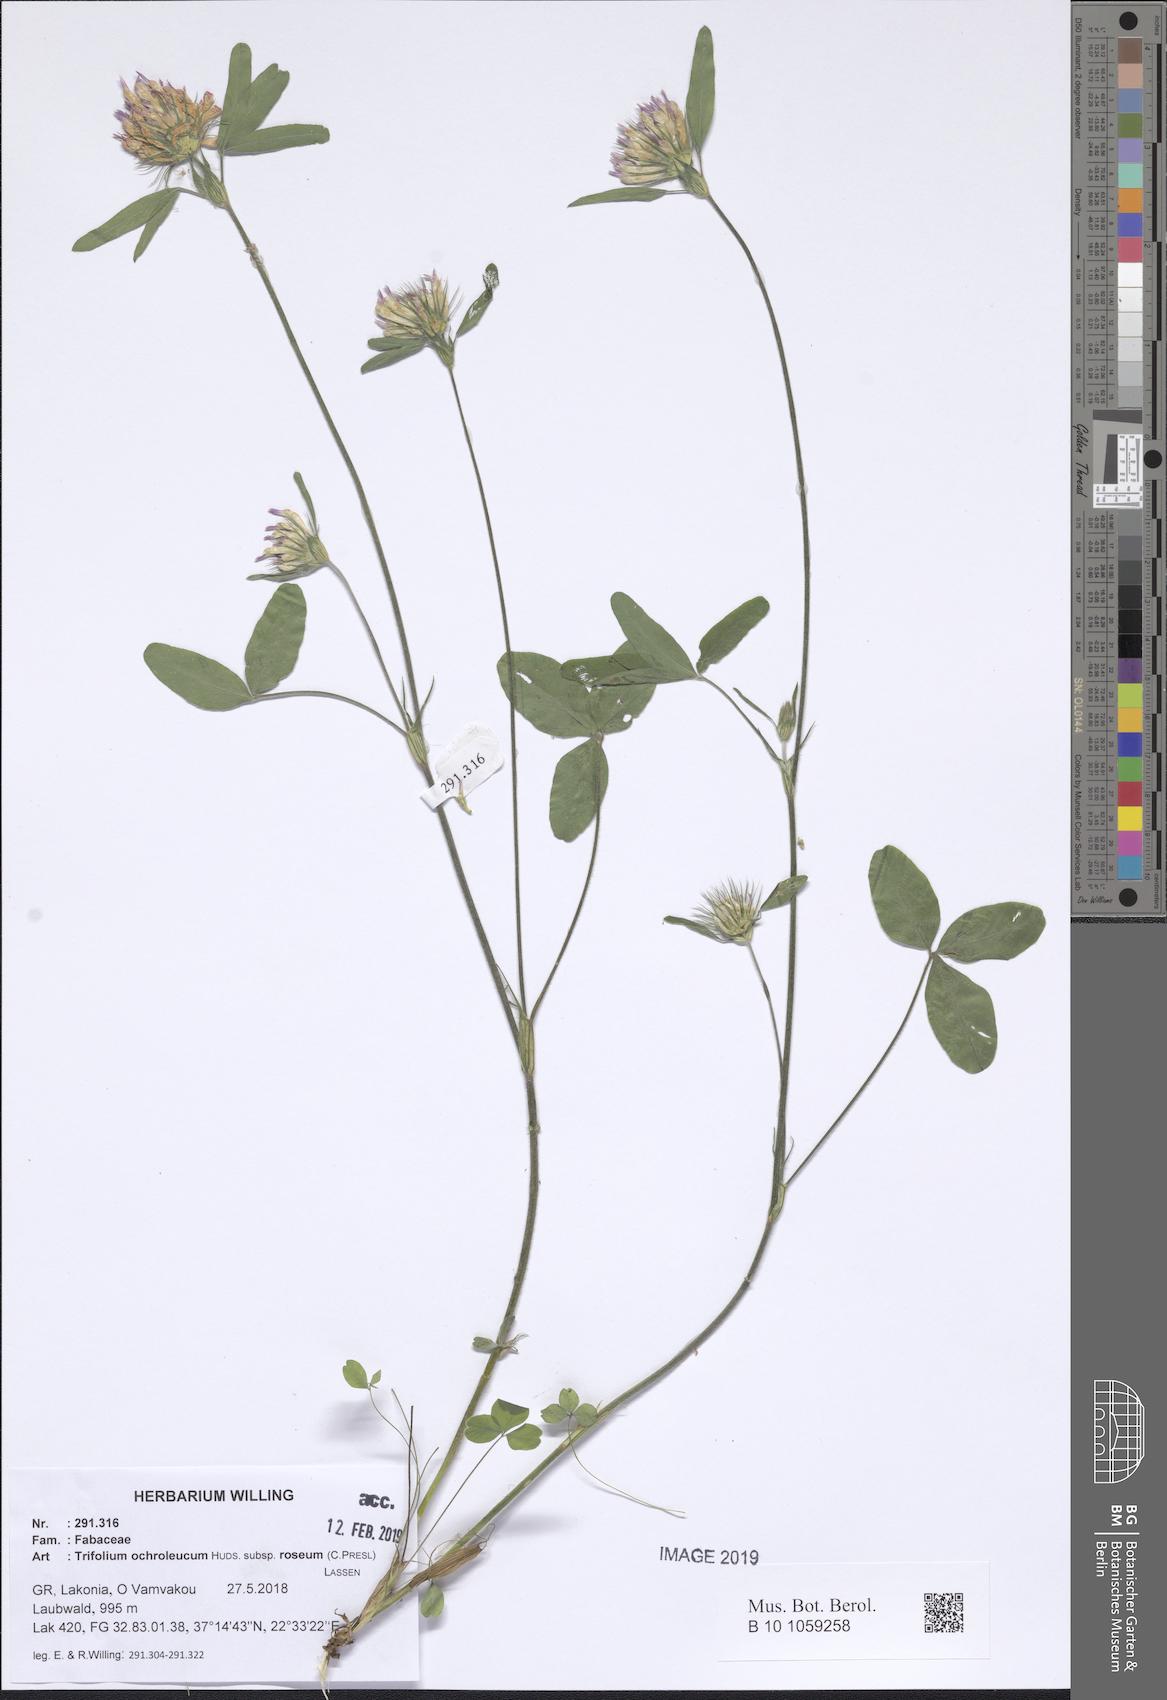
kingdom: Plantae
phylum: Tracheophyta
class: Magnoliopsida
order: Fabales
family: Fabaceae
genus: Trifolium
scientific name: Trifolium ochroleucon
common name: Sulphur clover
